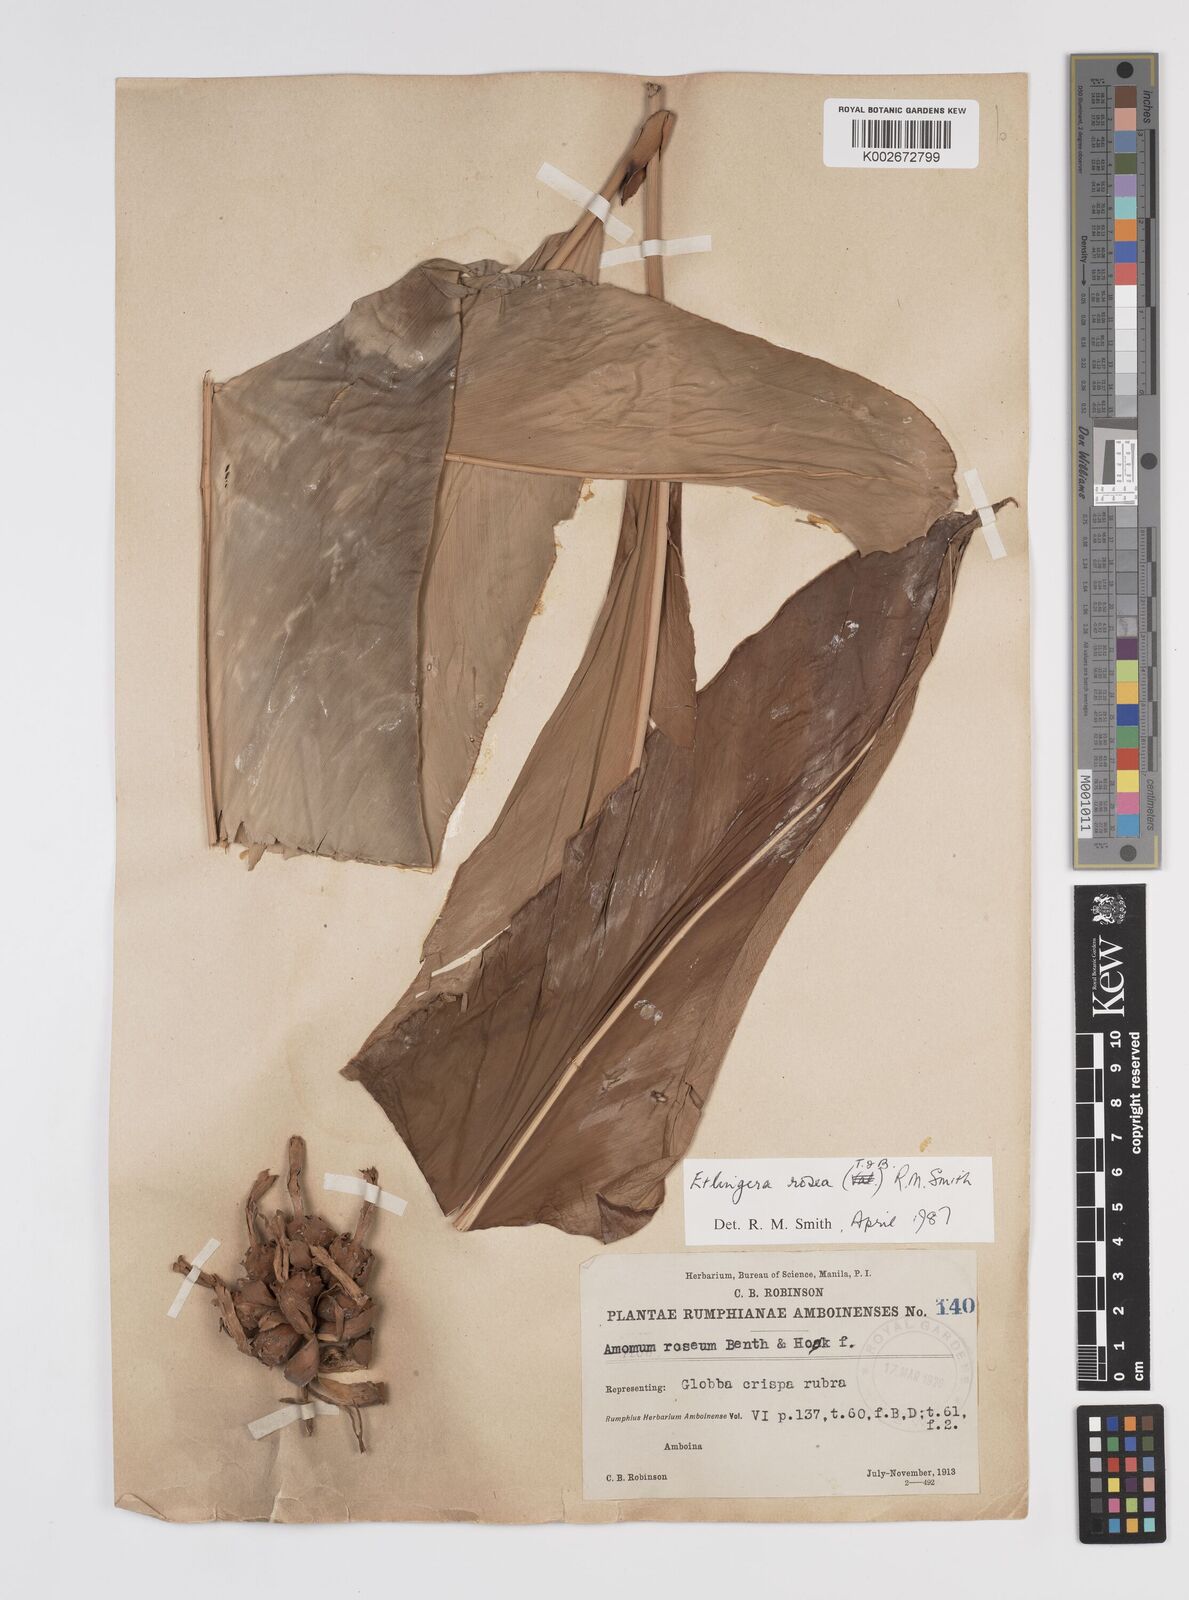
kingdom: Plantae
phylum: Tracheophyta
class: Liliopsida
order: Zingiberales
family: Zingiberaceae
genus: Etlingera
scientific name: Etlingera alba
